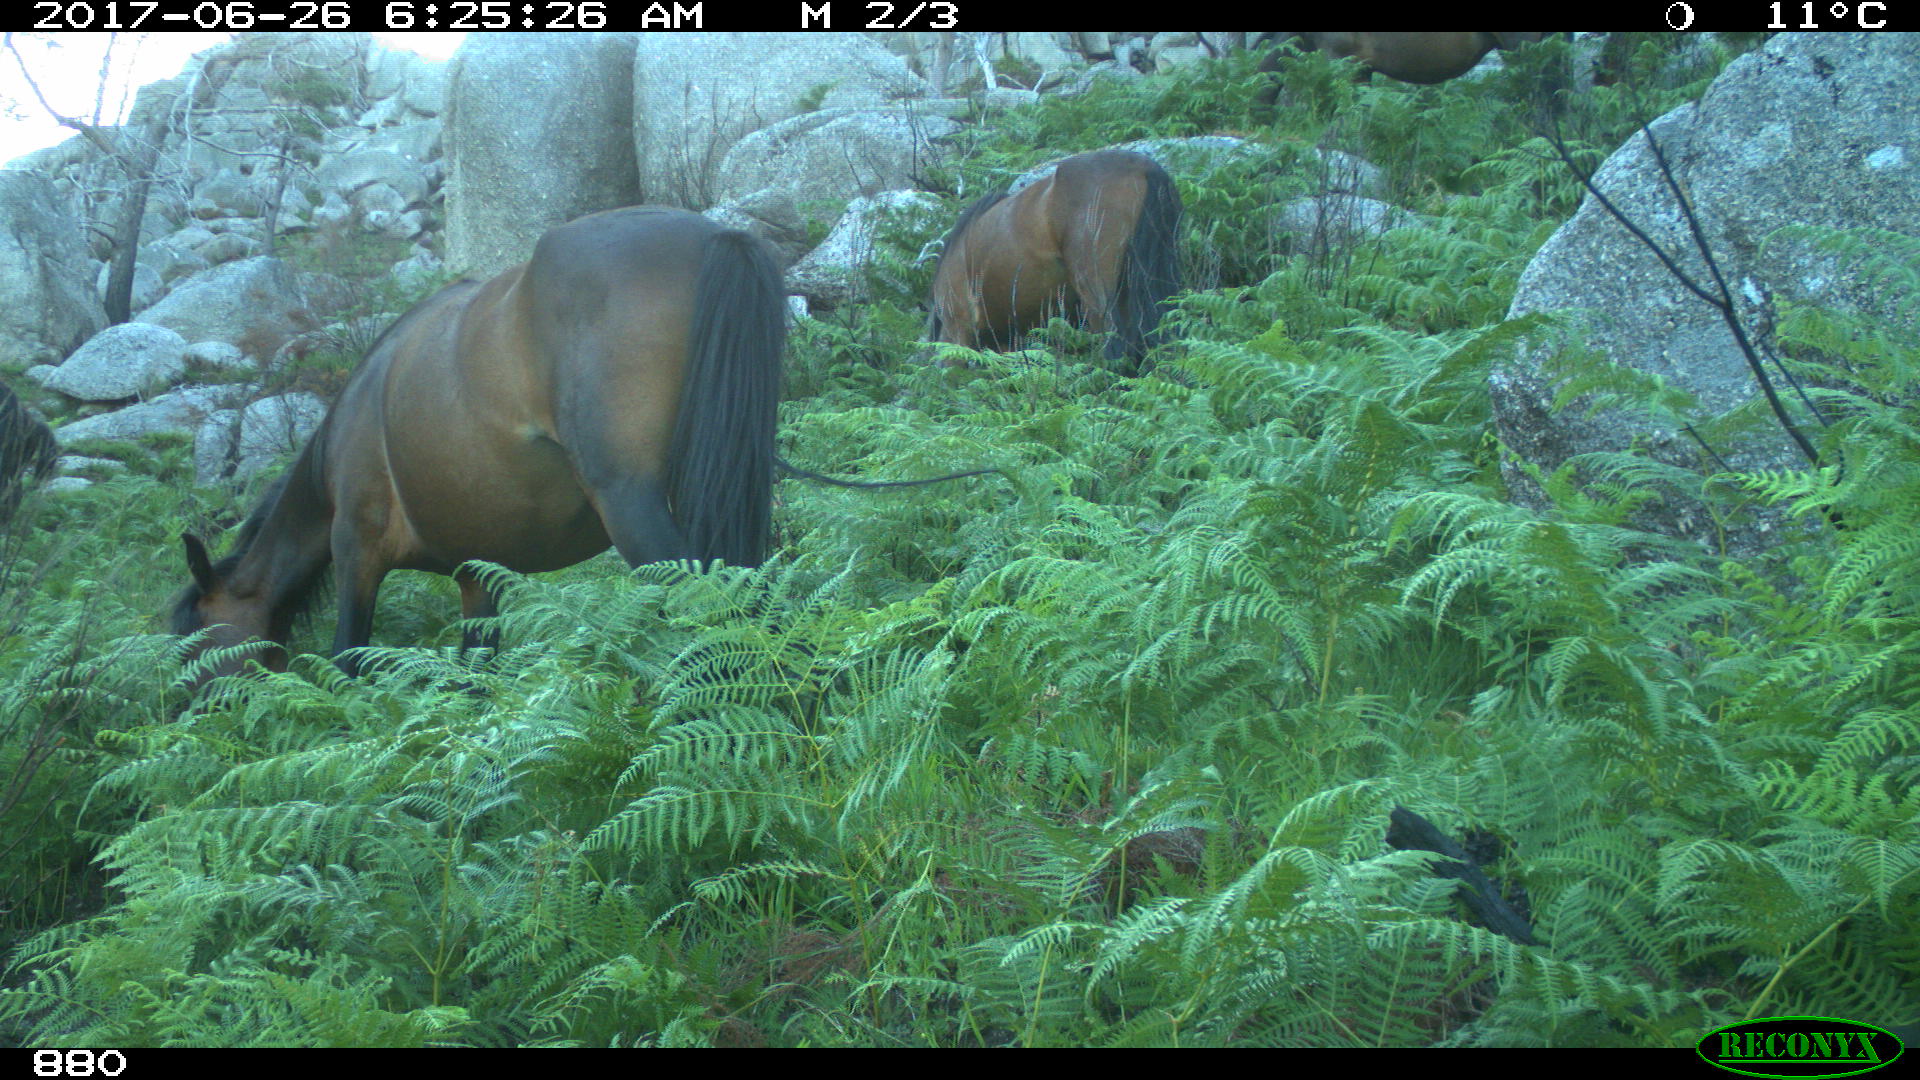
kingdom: Animalia
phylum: Chordata
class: Mammalia
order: Perissodactyla
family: Equidae
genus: Equus
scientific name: Equus caballus
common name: Horse
